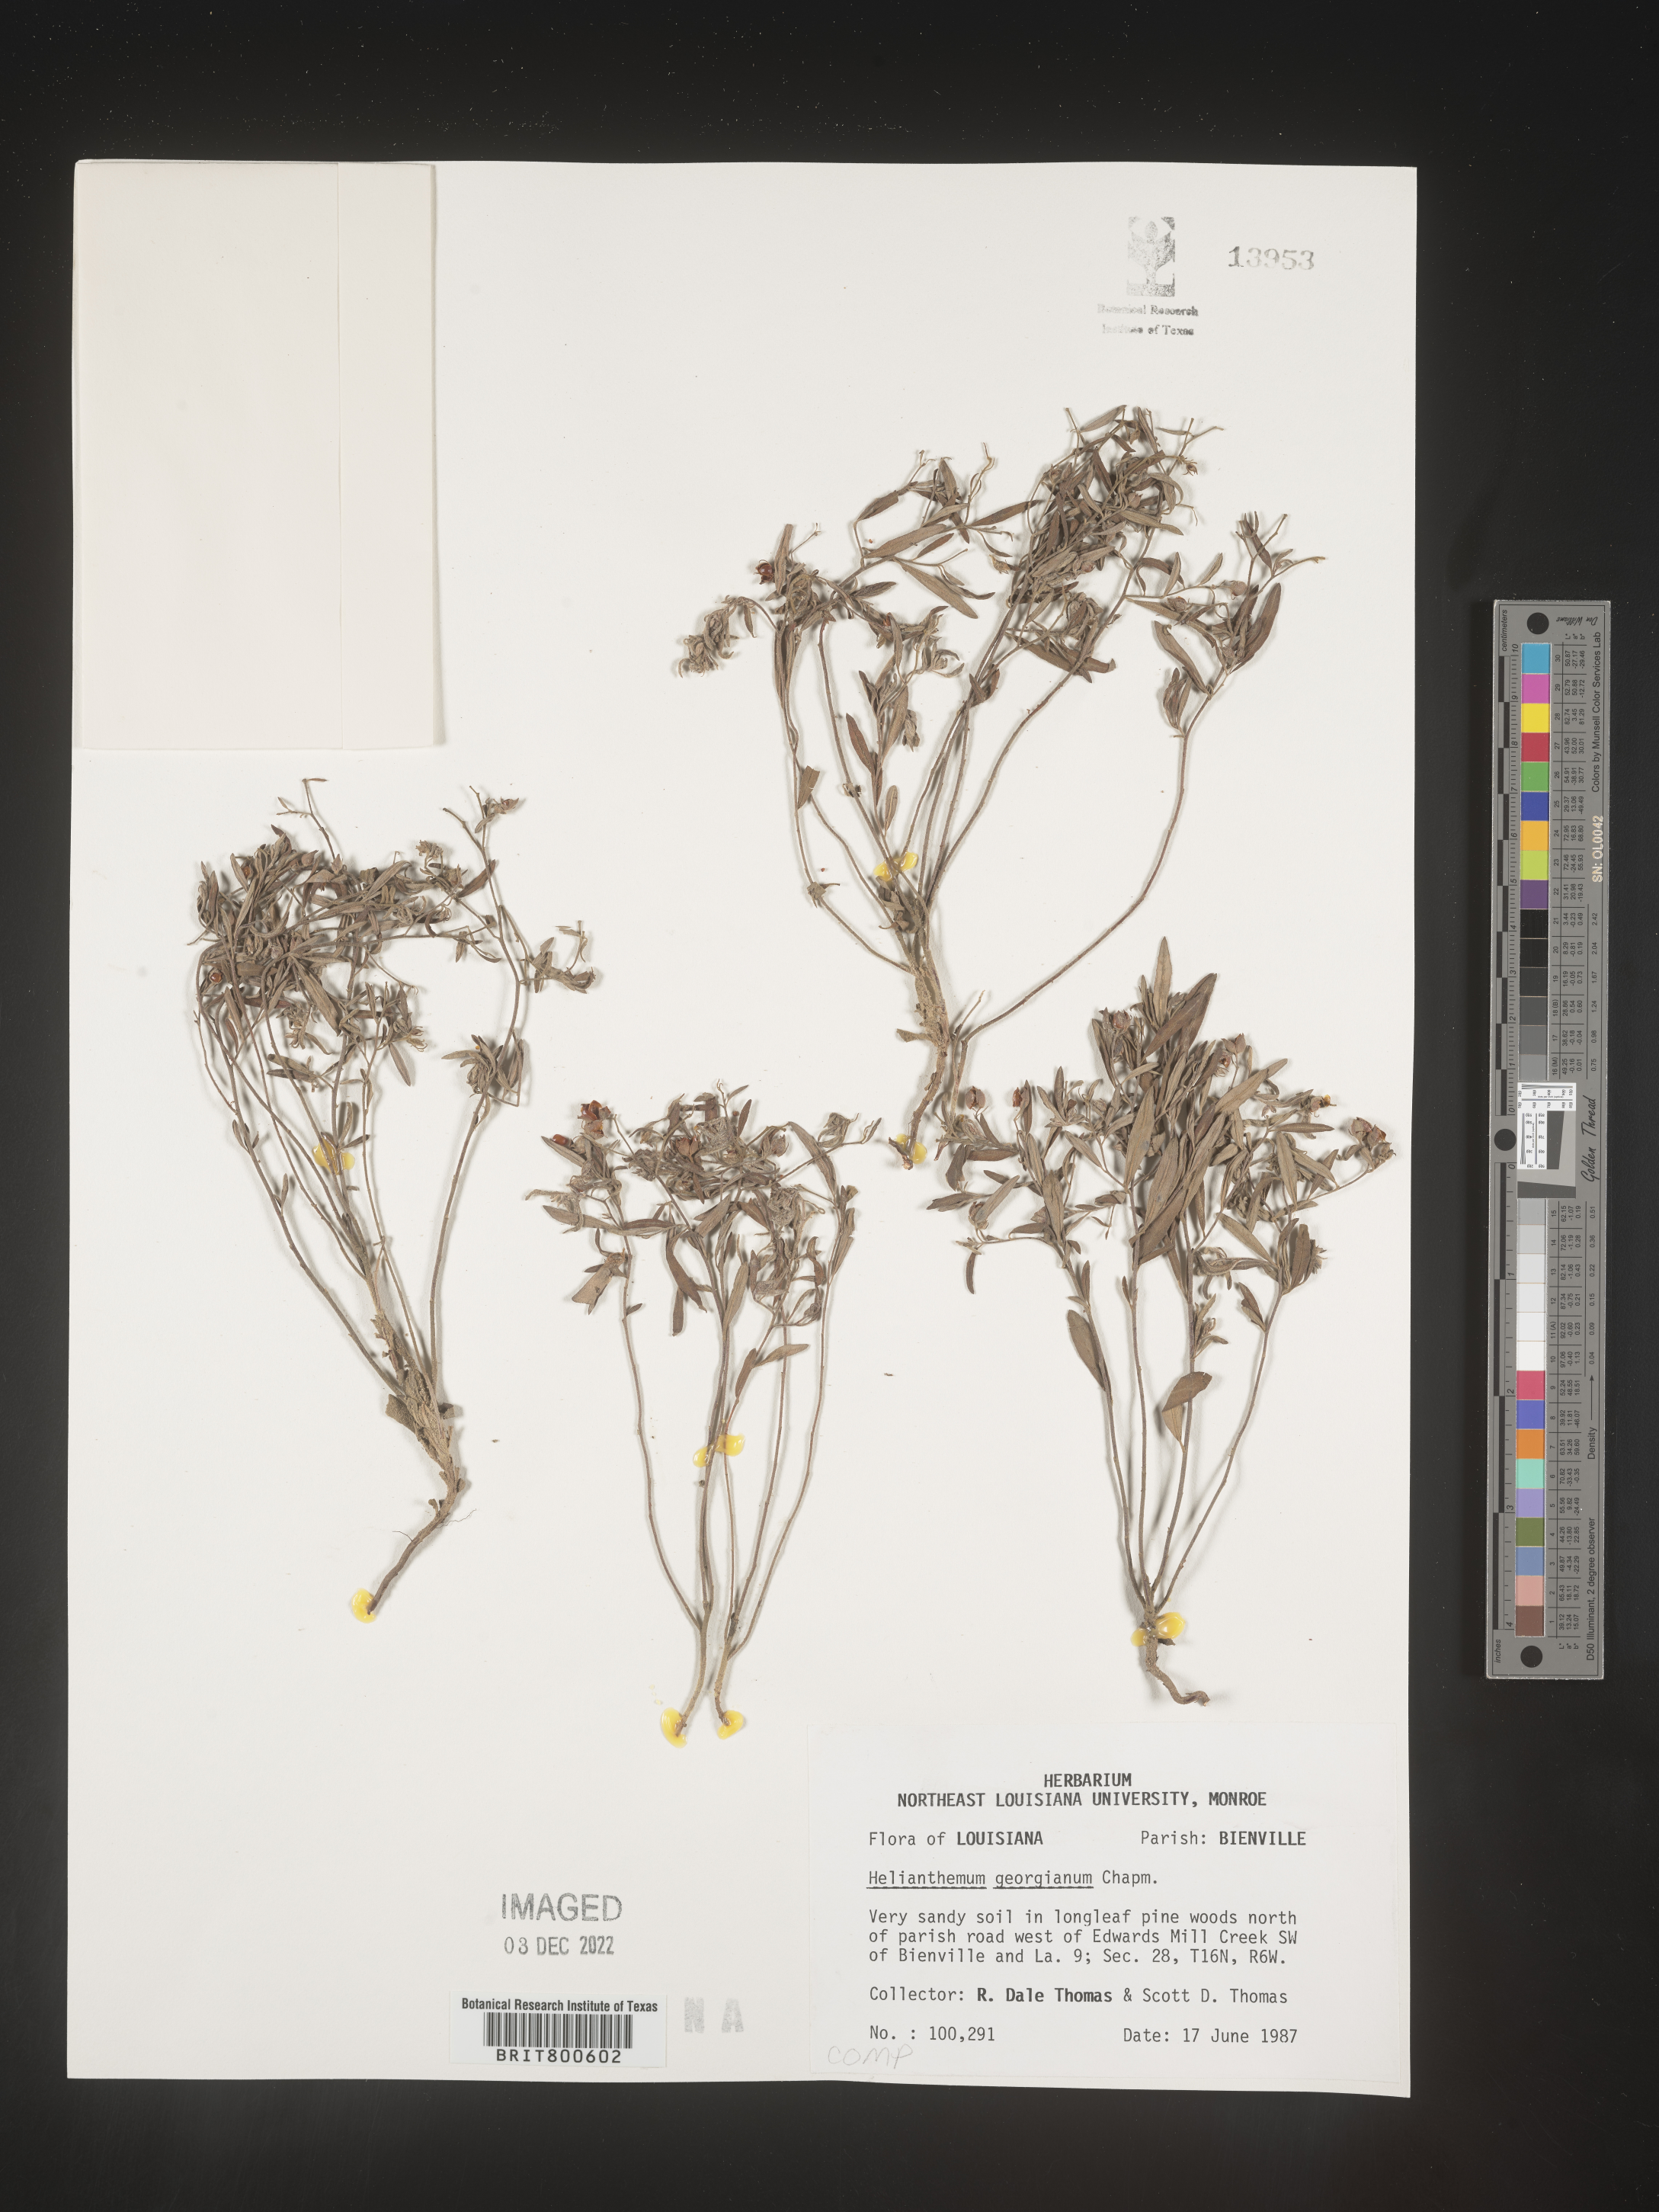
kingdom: Plantae
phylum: Tracheophyta
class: Magnoliopsida
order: Malvales
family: Cistaceae
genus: Crocanthemum
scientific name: Crocanthemum georgianum
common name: Georgia frostweed
